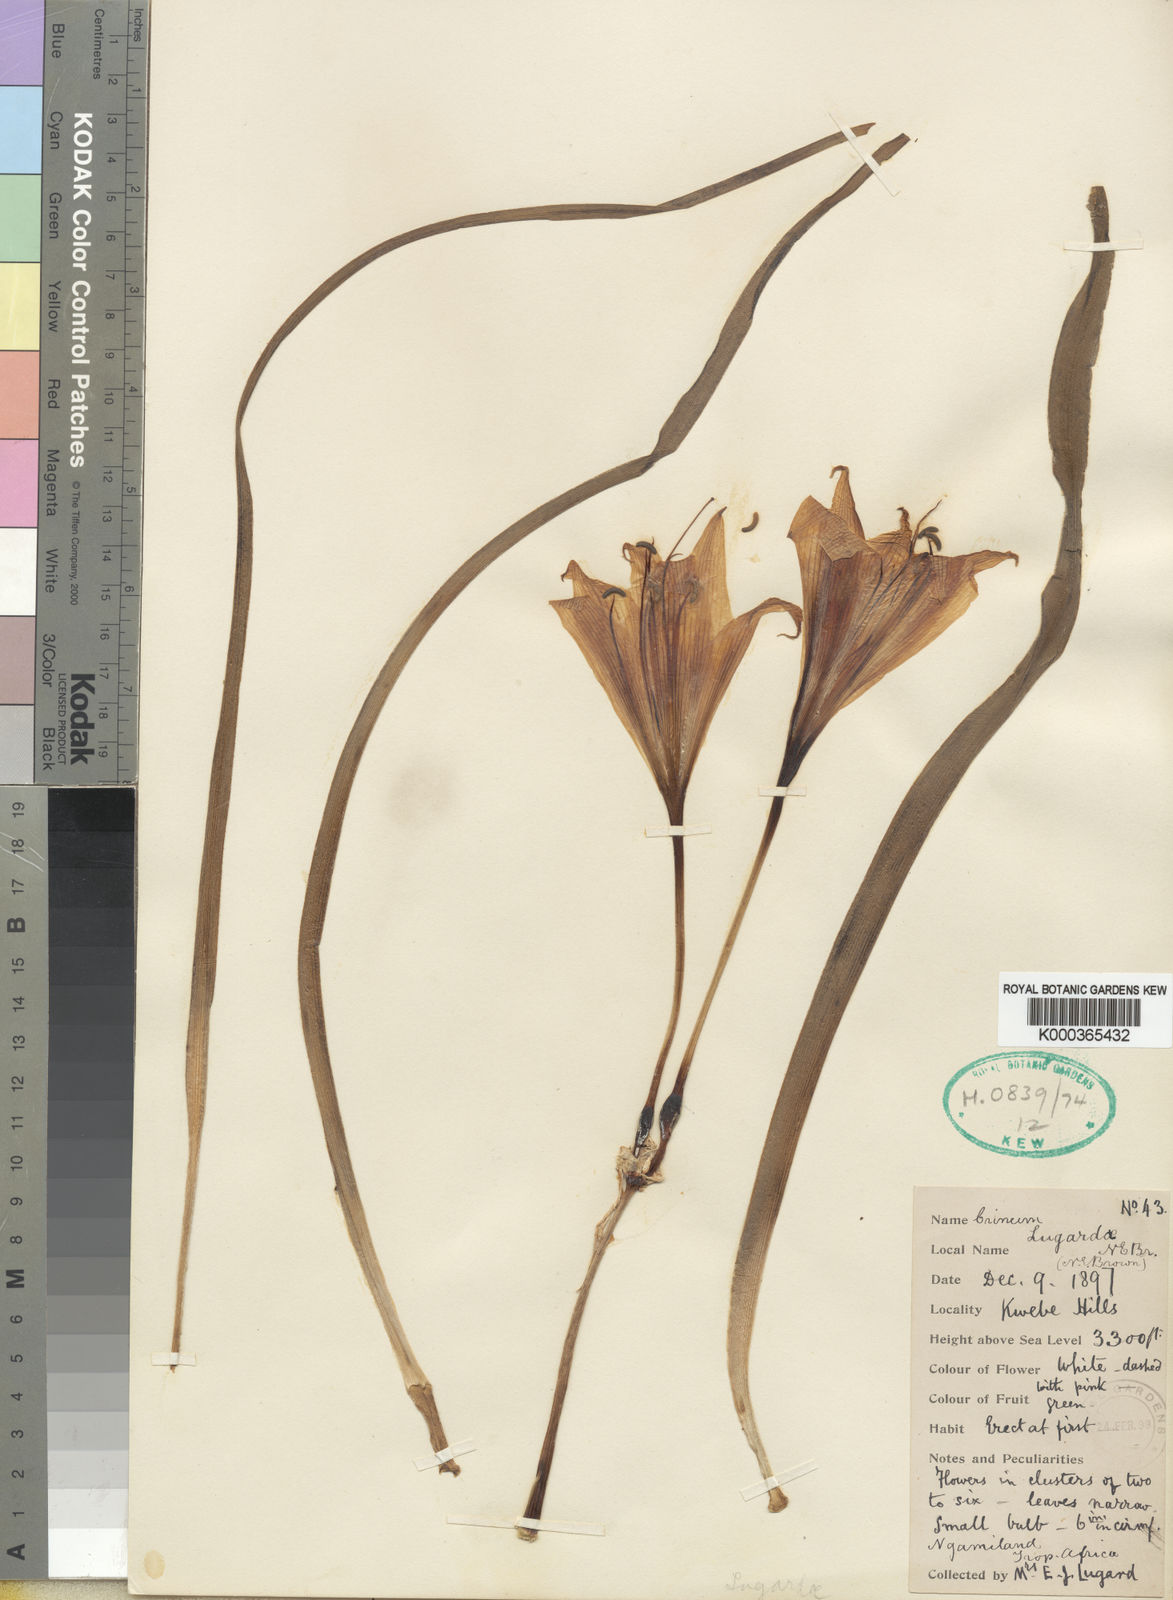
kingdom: Plantae
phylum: Tracheophyta
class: Liliopsida
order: Asparagales
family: Amaryllidaceae
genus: Crinum
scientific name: Crinum lugardiae
